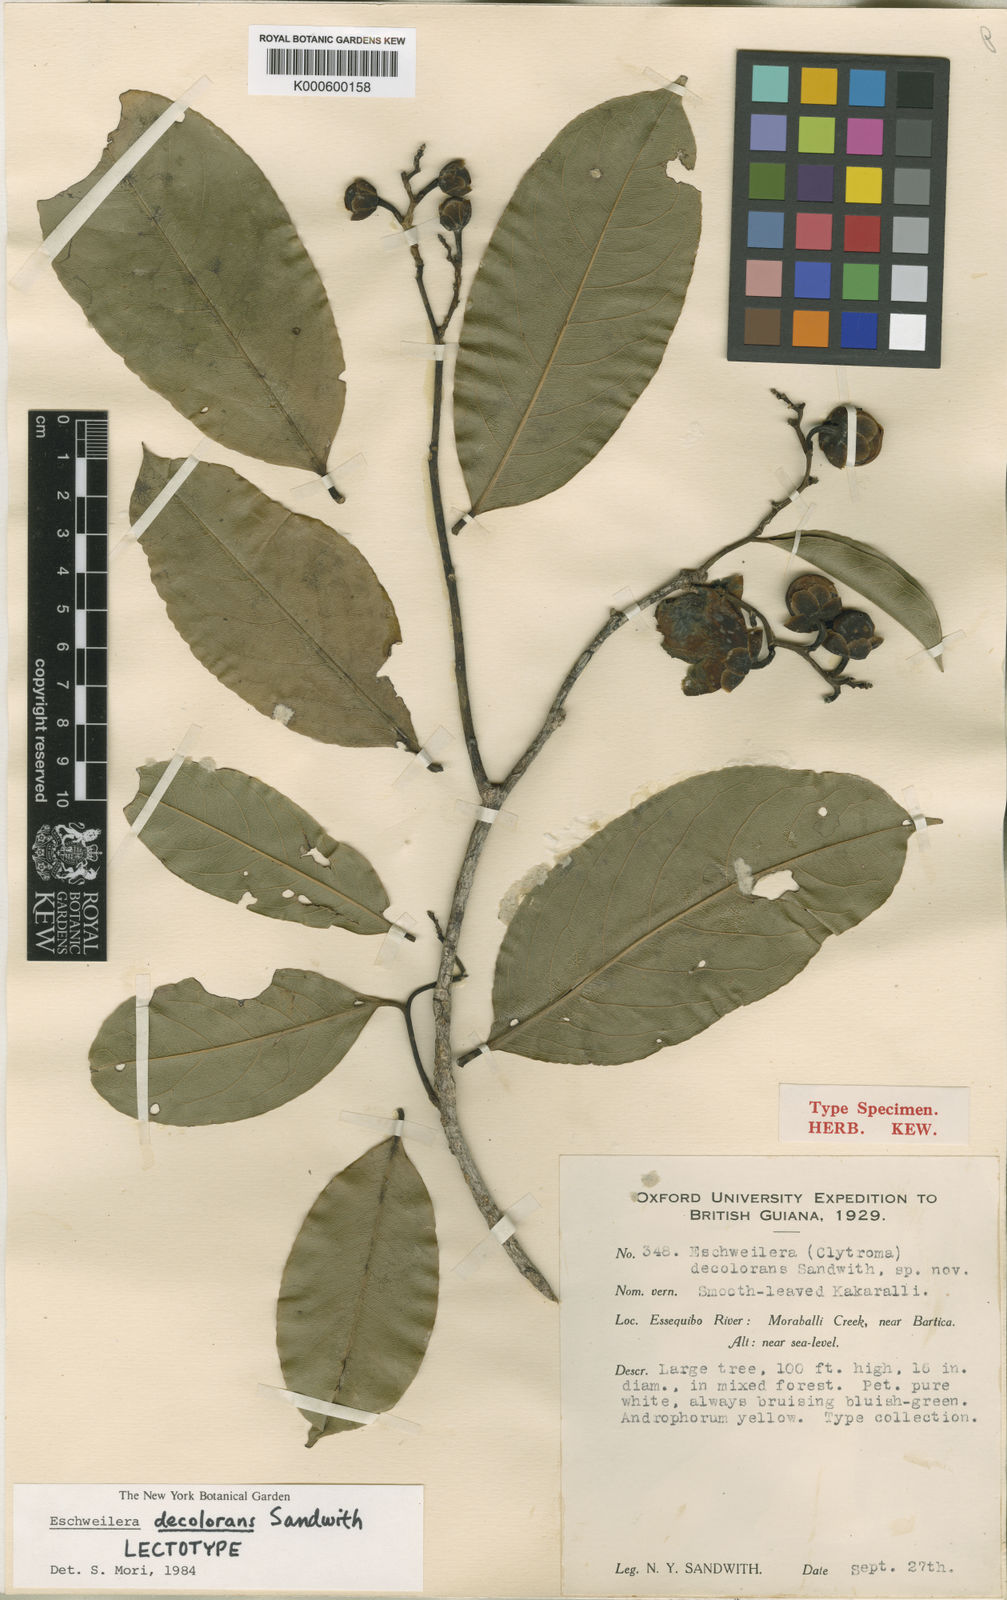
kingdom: Plantae
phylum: Tracheophyta
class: Magnoliopsida
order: Ericales
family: Lecythidaceae
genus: Eschweilera
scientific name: Eschweilera decolorans
